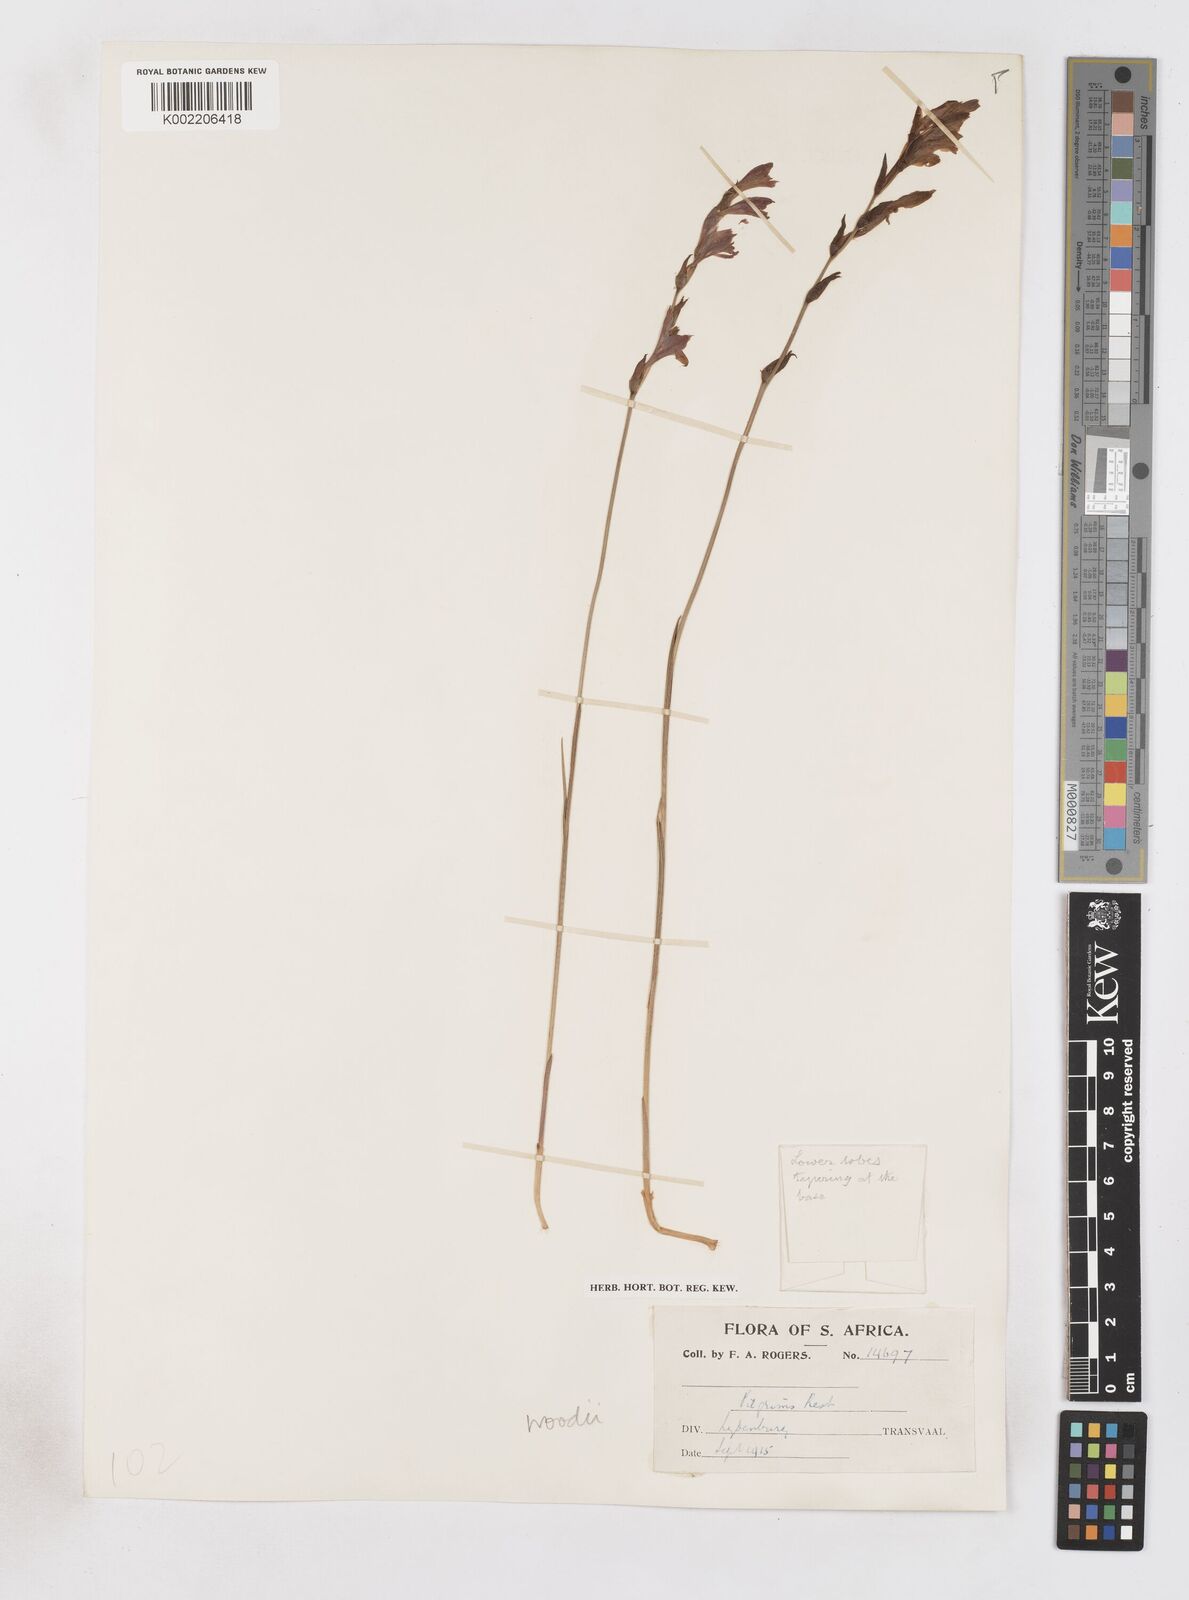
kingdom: Plantae
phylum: Tracheophyta
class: Liliopsida
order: Asparagales
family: Iridaceae
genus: Gladiolus
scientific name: Gladiolus woodii
